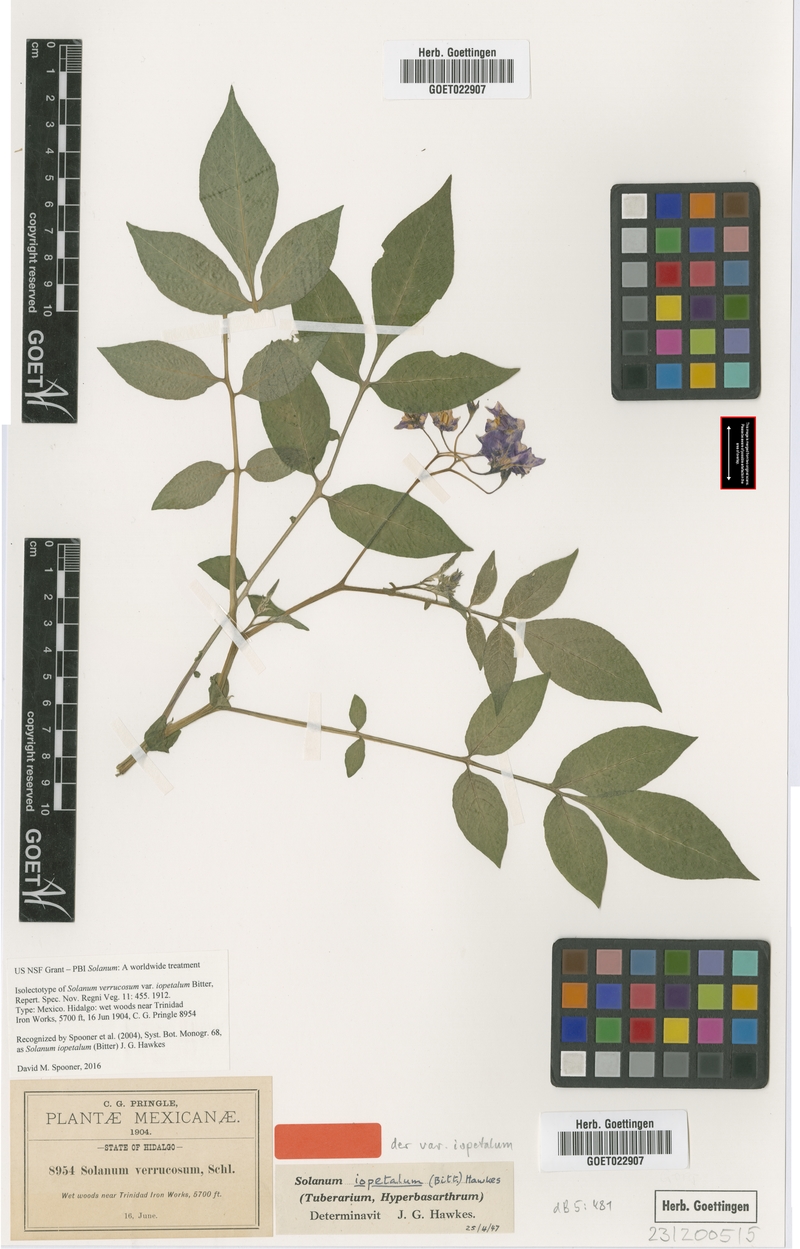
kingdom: Plantae
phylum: Tracheophyta
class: Magnoliopsida
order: Solanales
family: Solanaceae
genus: Solanum
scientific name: Solanum iopetalum
